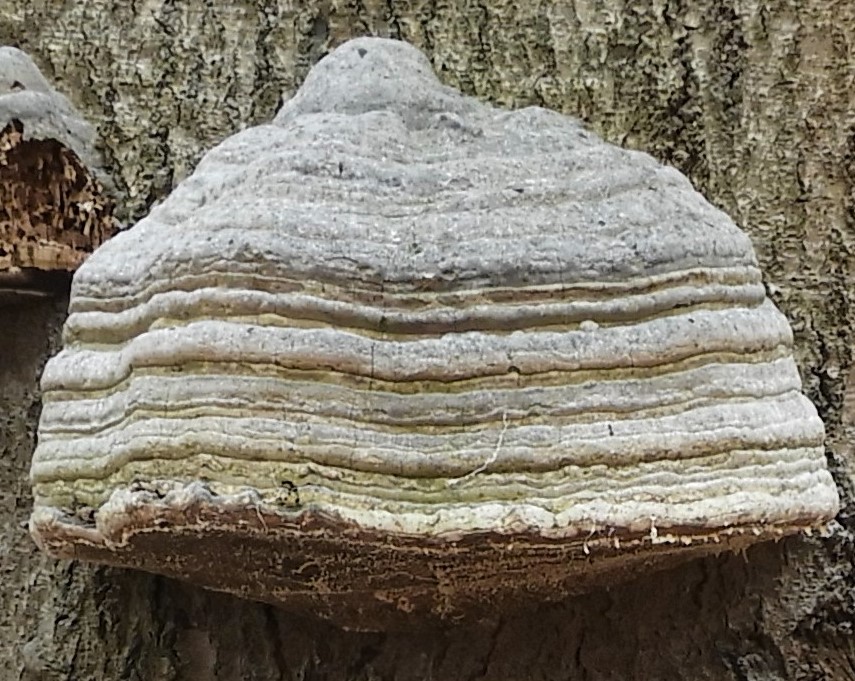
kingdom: Fungi
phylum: Basidiomycota
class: Agaricomycetes
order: Polyporales
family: Polyporaceae
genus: Fomes
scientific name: Fomes fomentarius
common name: tøndersvamp
